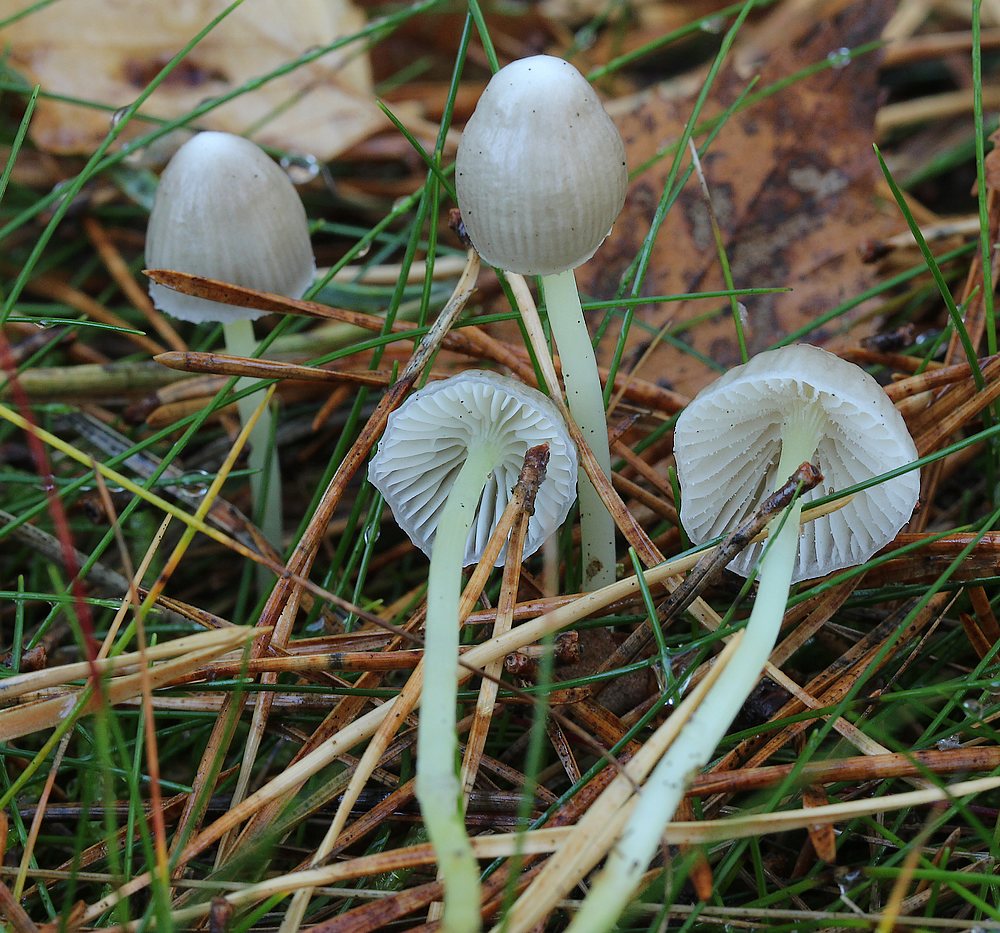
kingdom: Fungi
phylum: Basidiomycota
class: Agaricomycetes
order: Agaricales
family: Mycenaceae
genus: Mycena
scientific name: Mycena epipterygia
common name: Yellowleg bonnet
